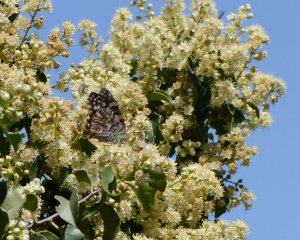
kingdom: Animalia
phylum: Arthropoda
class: Insecta
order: Lepidoptera
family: Nymphalidae
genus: Vanessa
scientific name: Vanessa cardui
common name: Painted Lady
